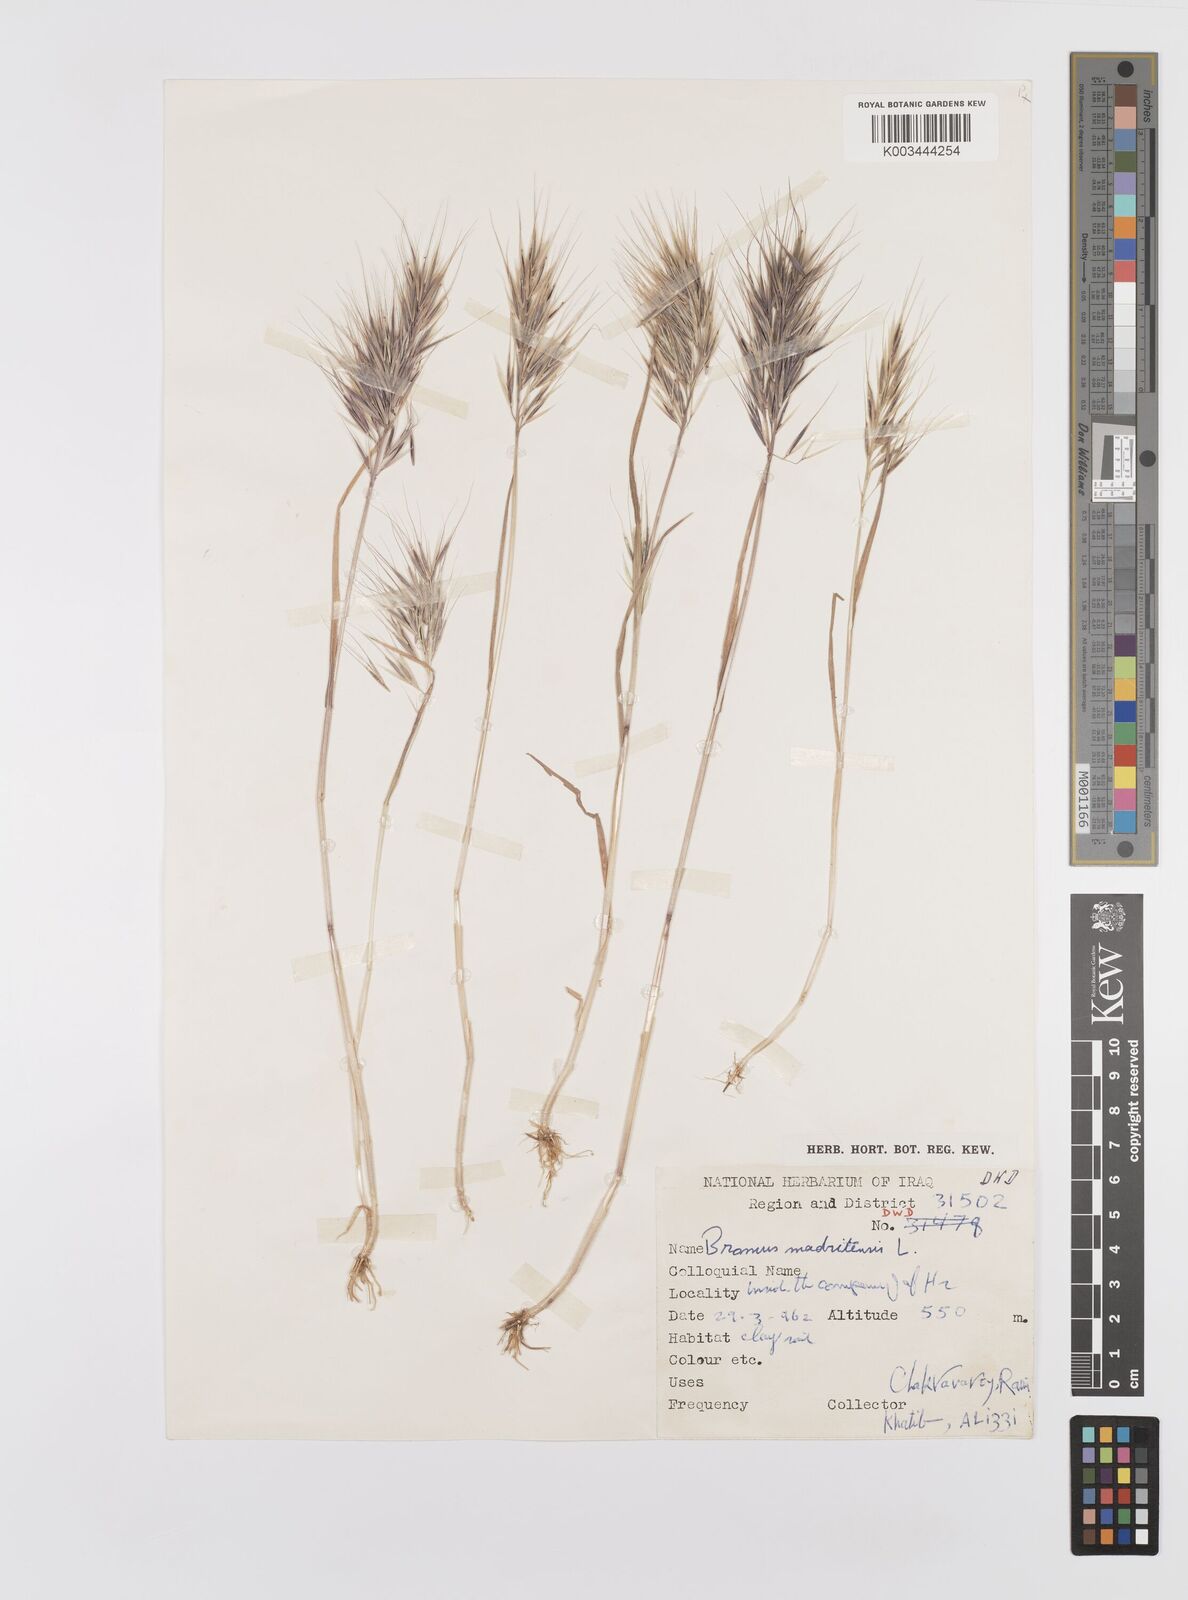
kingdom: Plantae
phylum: Tracheophyta
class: Liliopsida
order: Poales
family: Poaceae
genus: Bromus
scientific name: Bromus madritensis
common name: Compact brome
